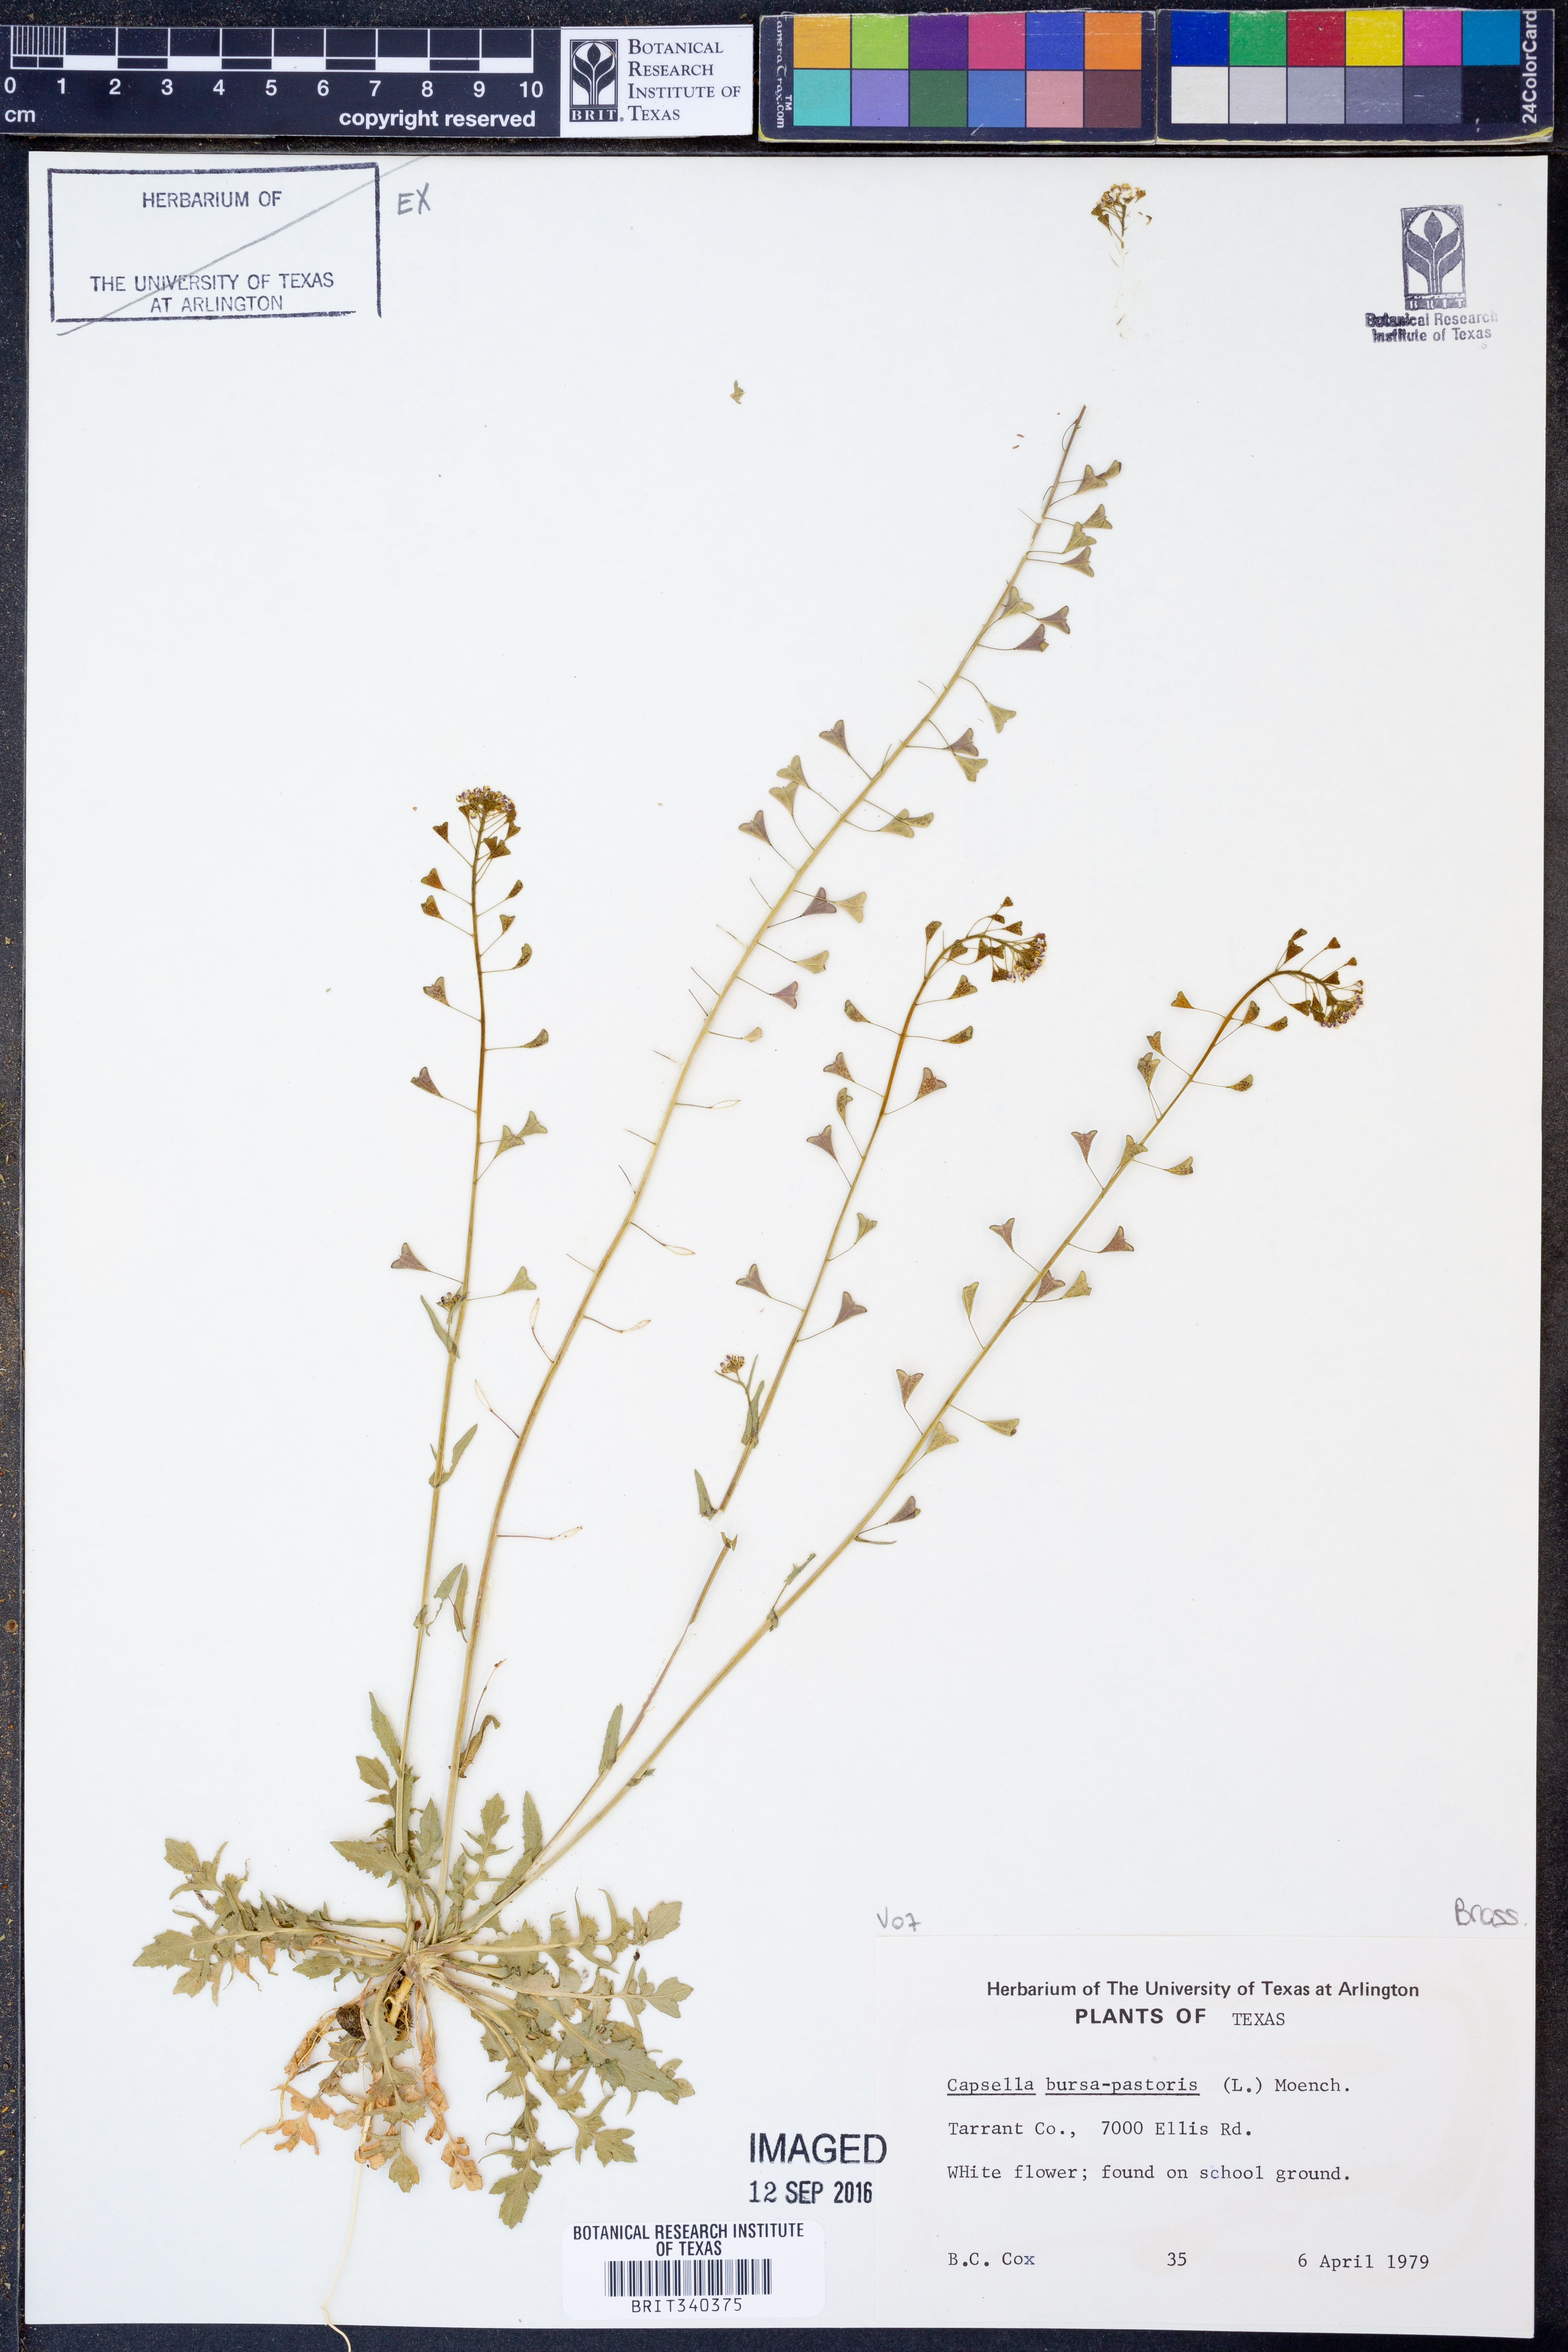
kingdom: Plantae
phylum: Tracheophyta
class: Magnoliopsida
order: Brassicales
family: Brassicaceae
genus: Capsella
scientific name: Capsella bursa-pastoris
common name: Shepherd's purse
